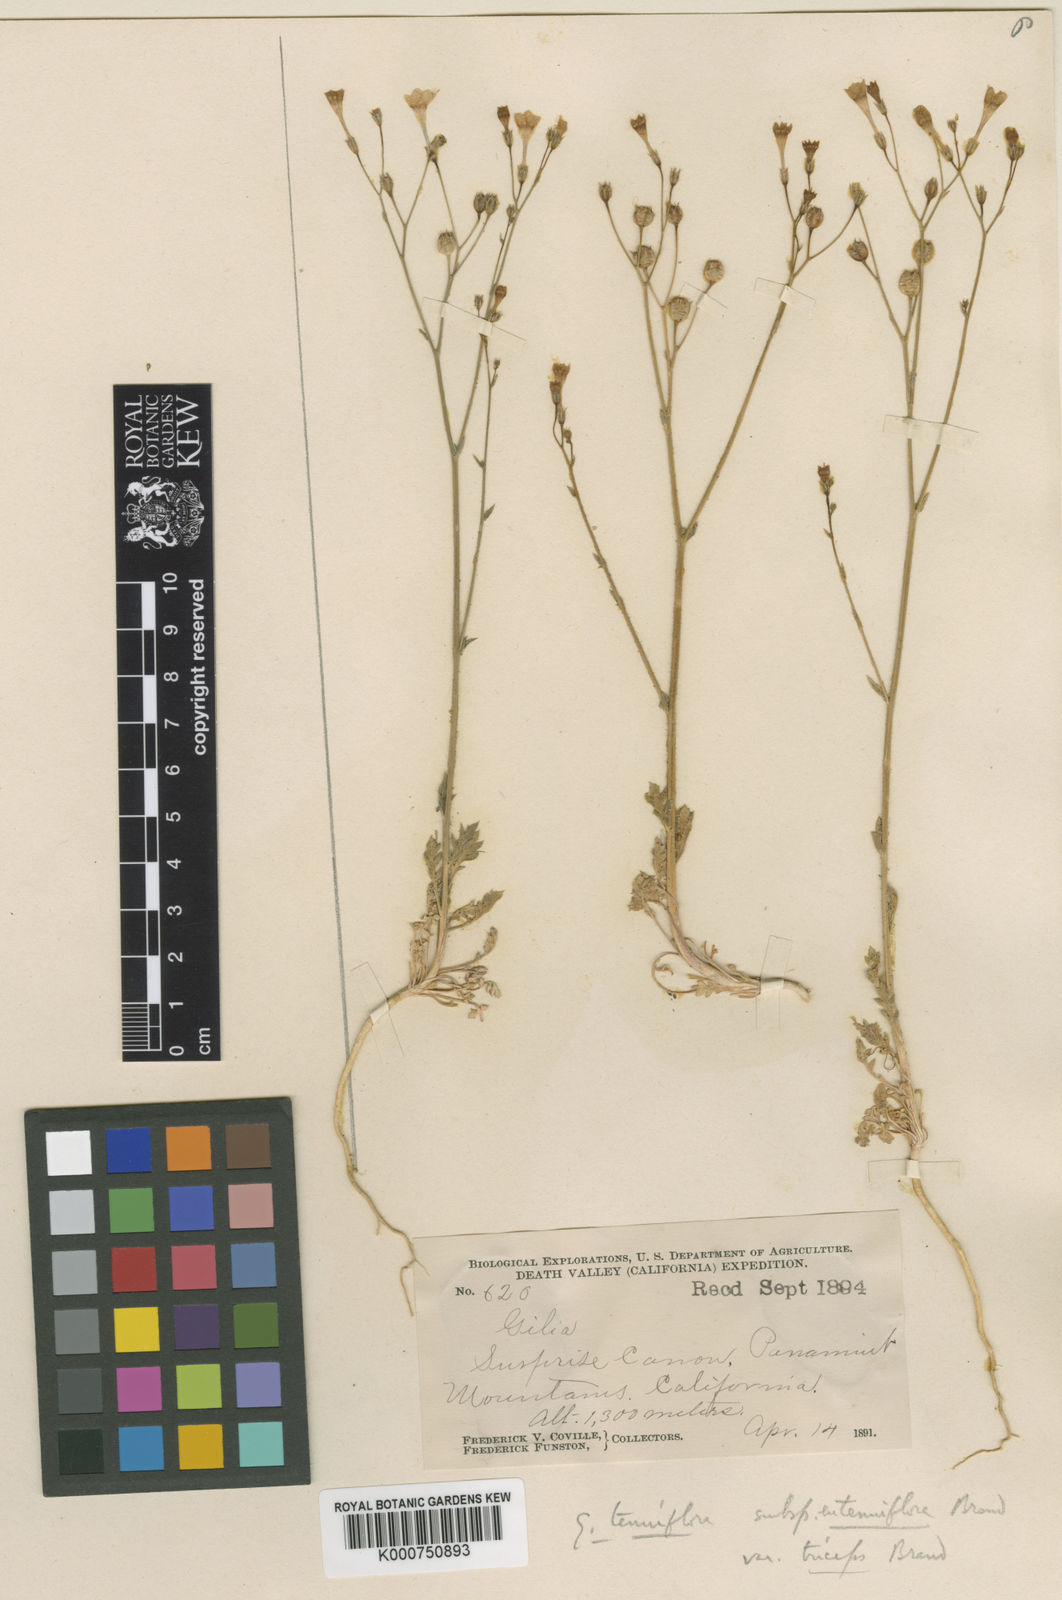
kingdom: Plantae
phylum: Tracheophyta
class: Magnoliopsida
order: Ericales
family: Polemoniaceae
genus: Gilia
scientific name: Gilia cana
